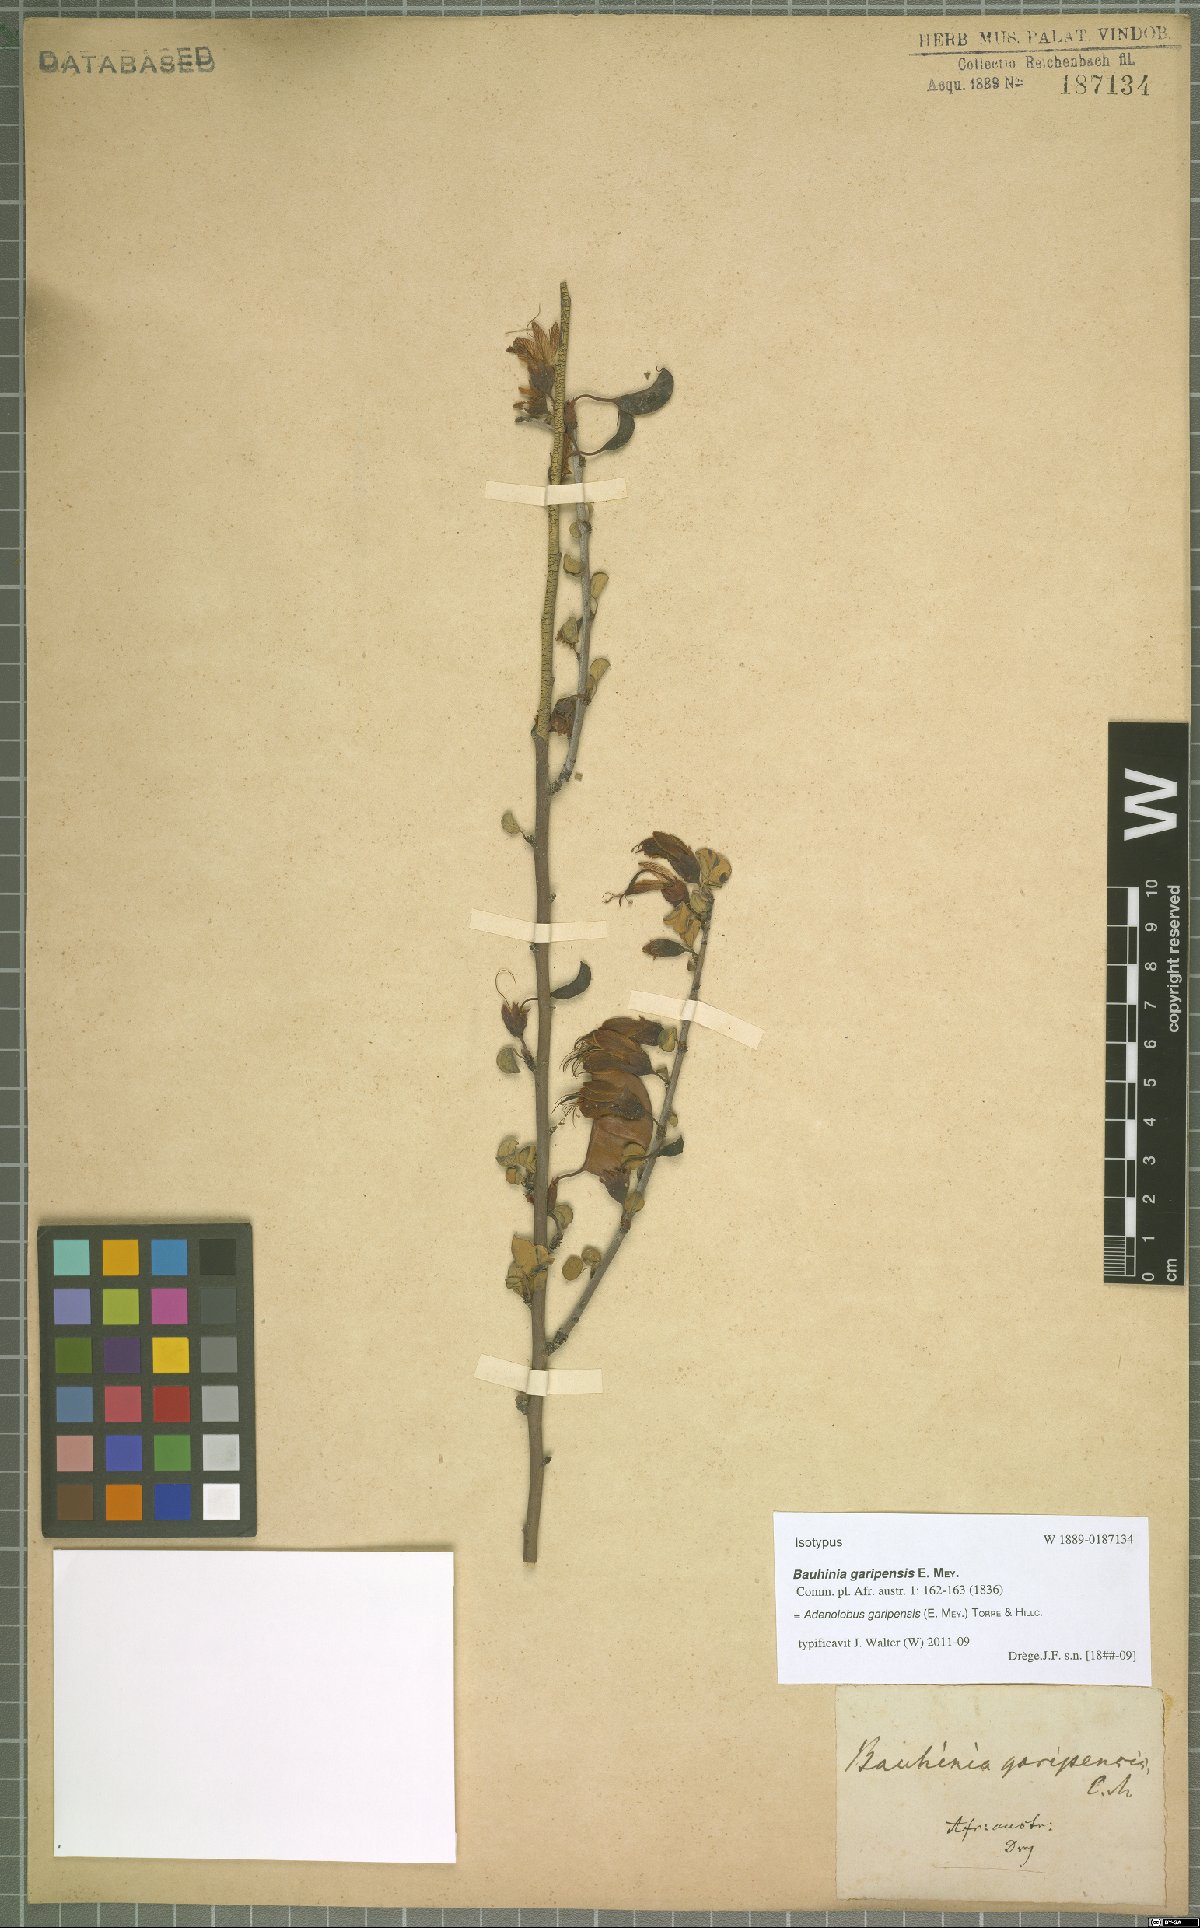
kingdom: Plantae
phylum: Tracheophyta
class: Magnoliopsida
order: Fabales
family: Fabaceae
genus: Adenolobus
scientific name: Adenolobus garipensis
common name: Butterfly-leaf
